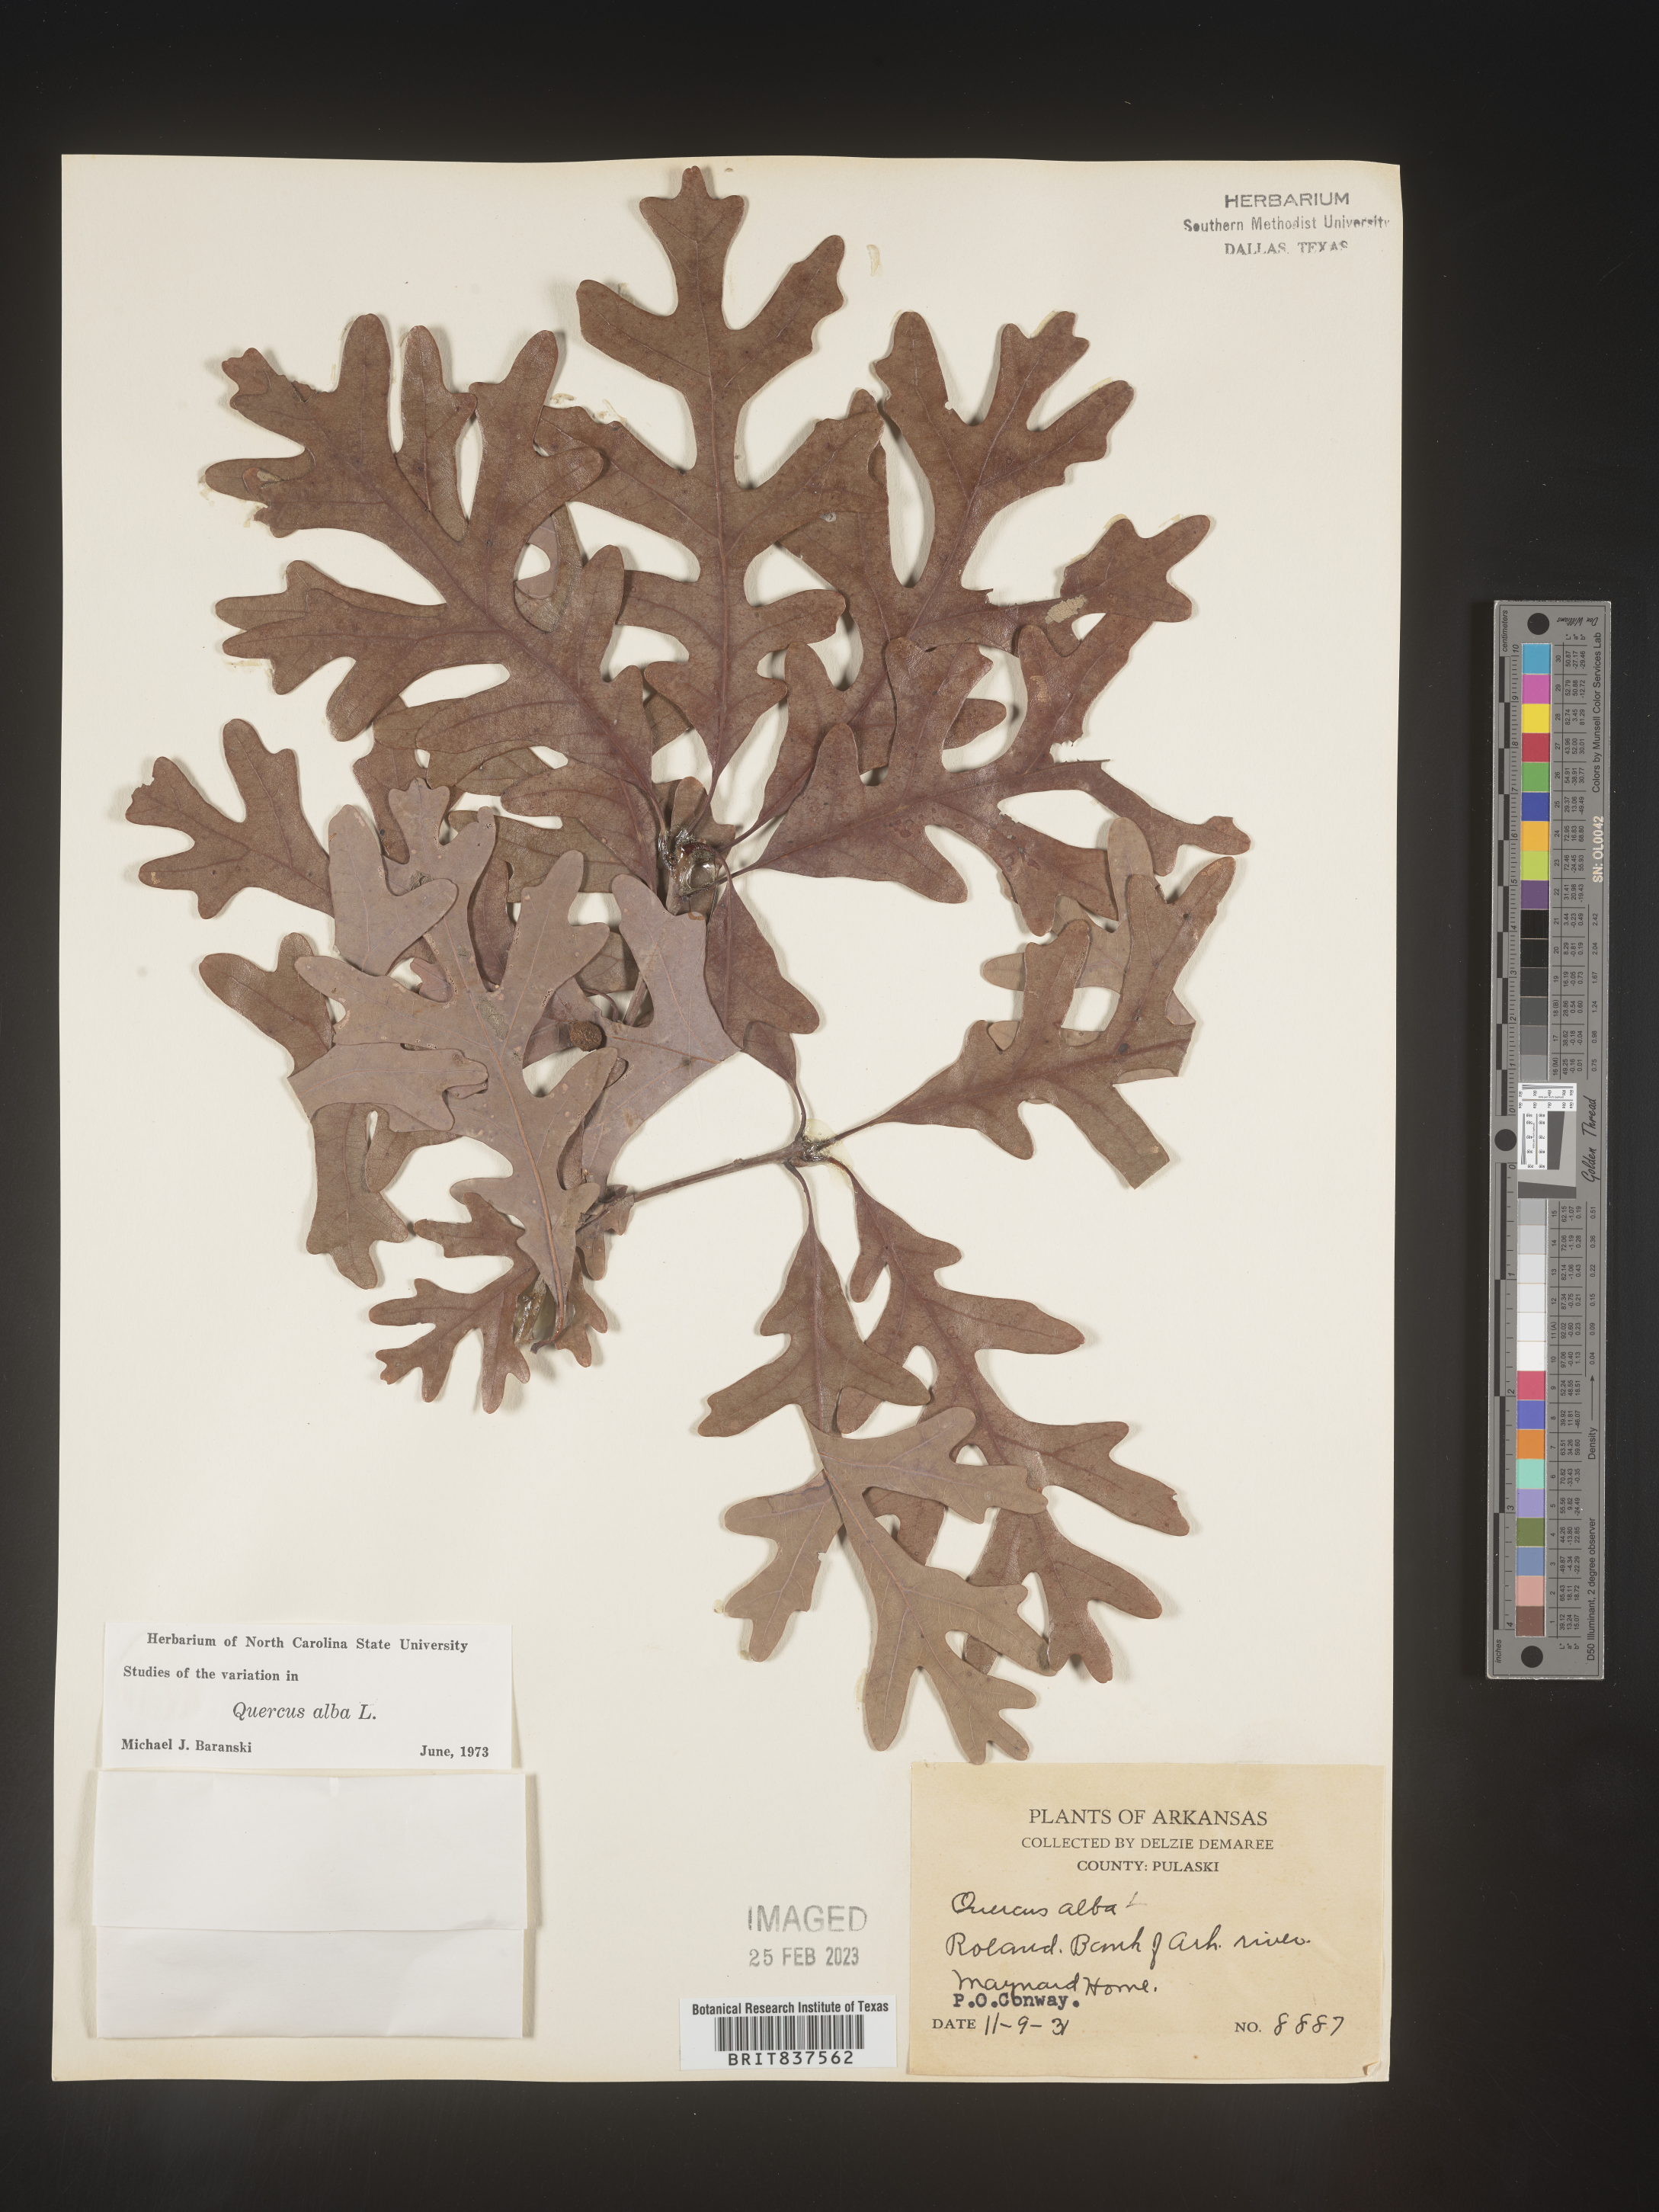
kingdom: Plantae
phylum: Tracheophyta
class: Magnoliopsida
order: Fagales
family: Fagaceae
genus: Quercus
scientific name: Quercus alba
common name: White oak
